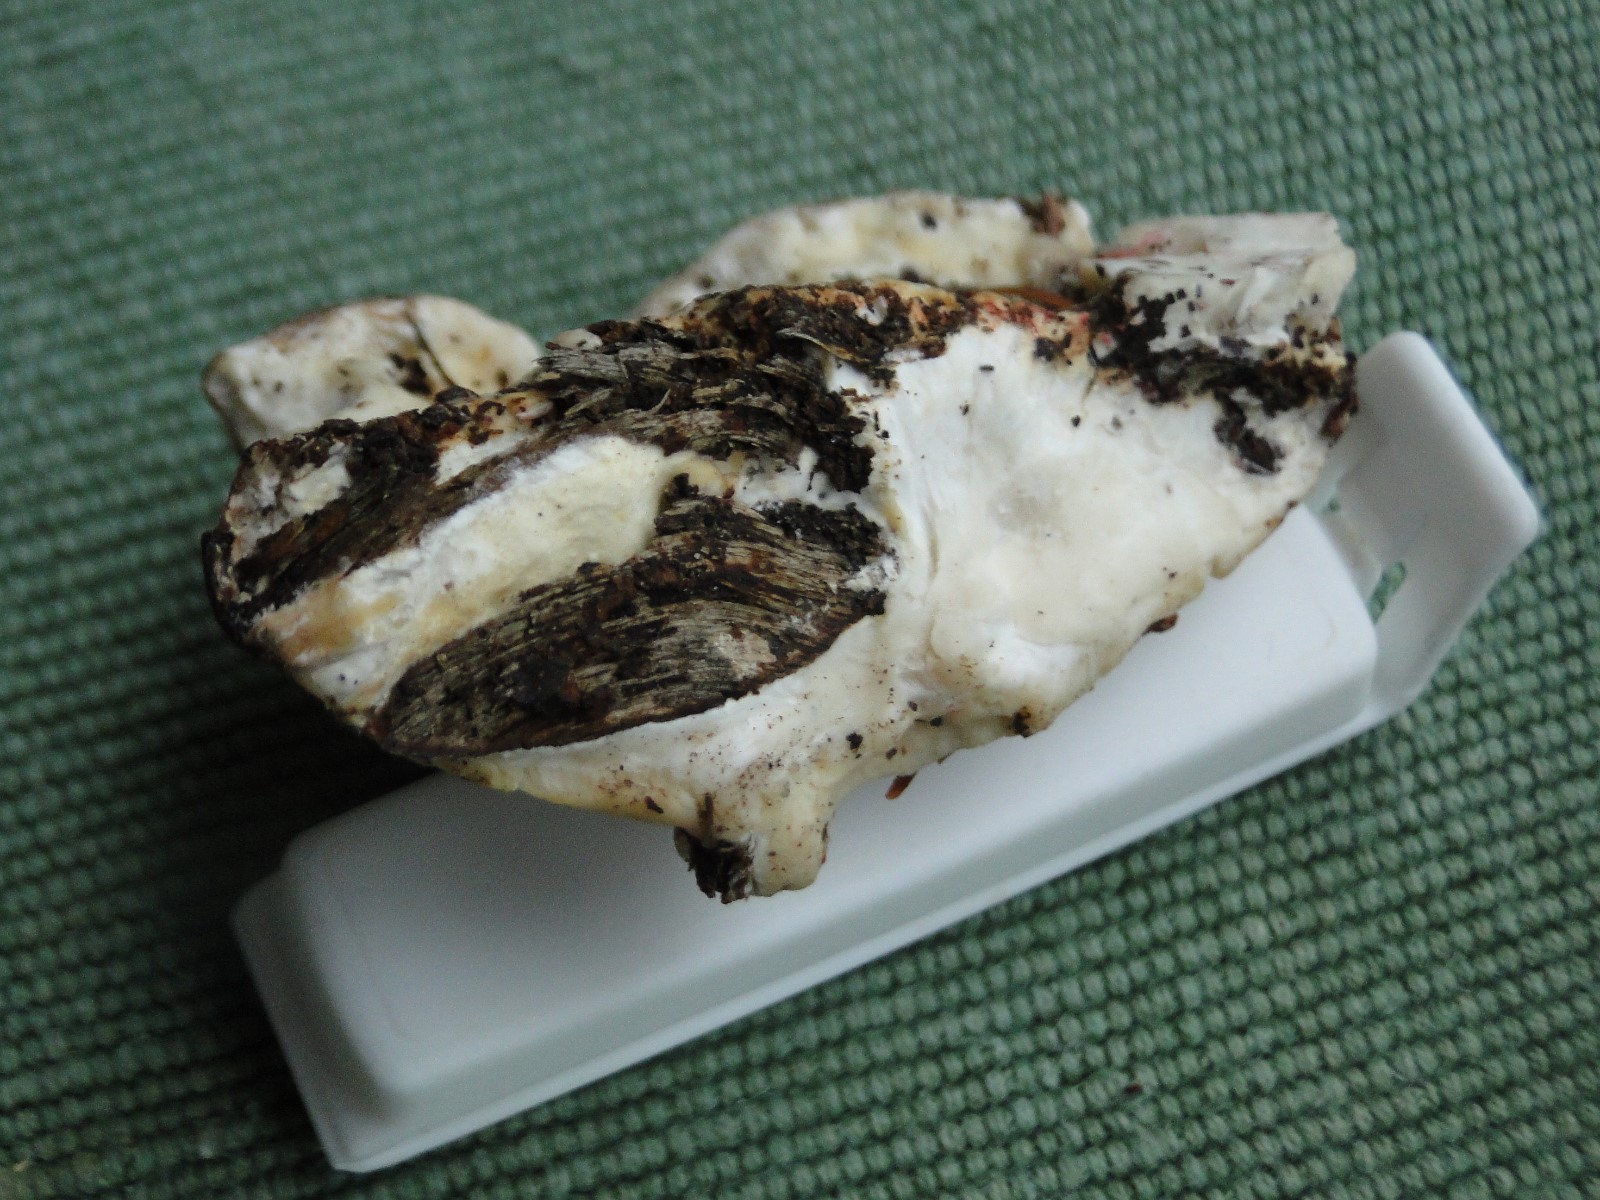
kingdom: Fungi
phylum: Basidiomycota
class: Agaricomycetes
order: Polyporales
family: Incrustoporiaceae
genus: Tyromyces
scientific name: Tyromyces chioneus
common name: stor blødporesvamp
